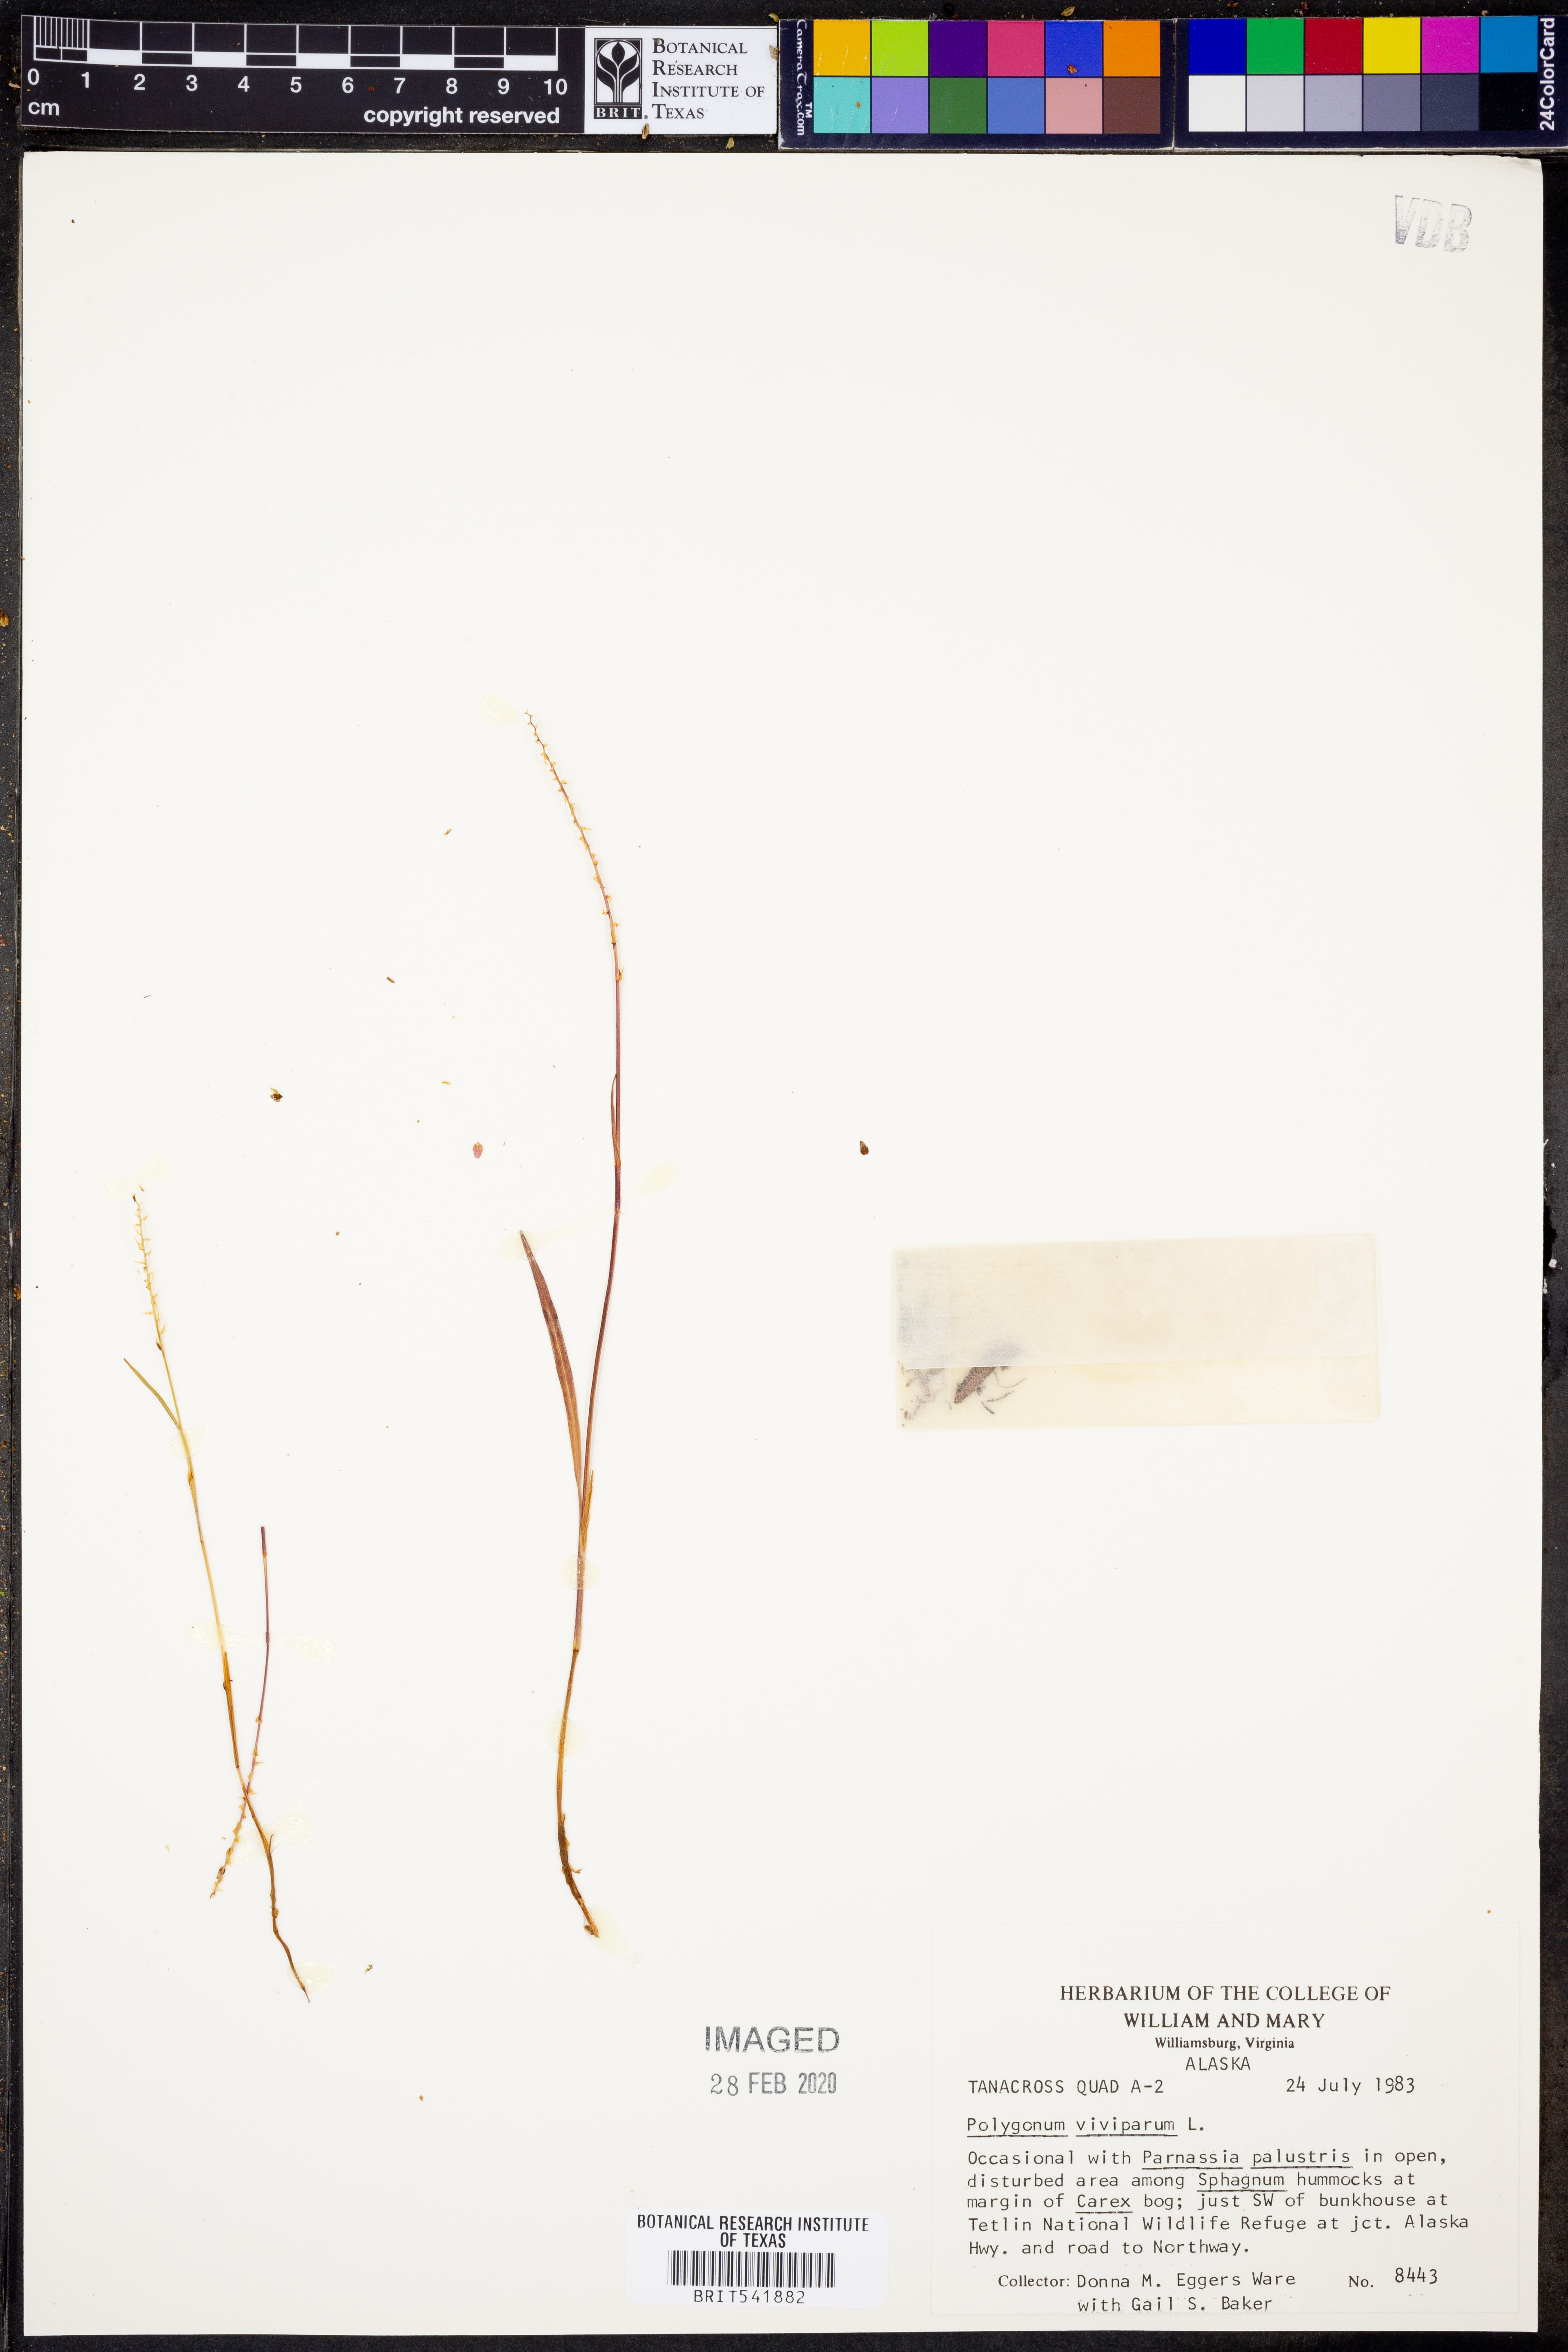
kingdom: Plantae
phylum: Tracheophyta
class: Magnoliopsida
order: Caryophyllales
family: Polygonaceae
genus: Bistorta
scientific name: Bistorta vivipara
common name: Alpine bistort
